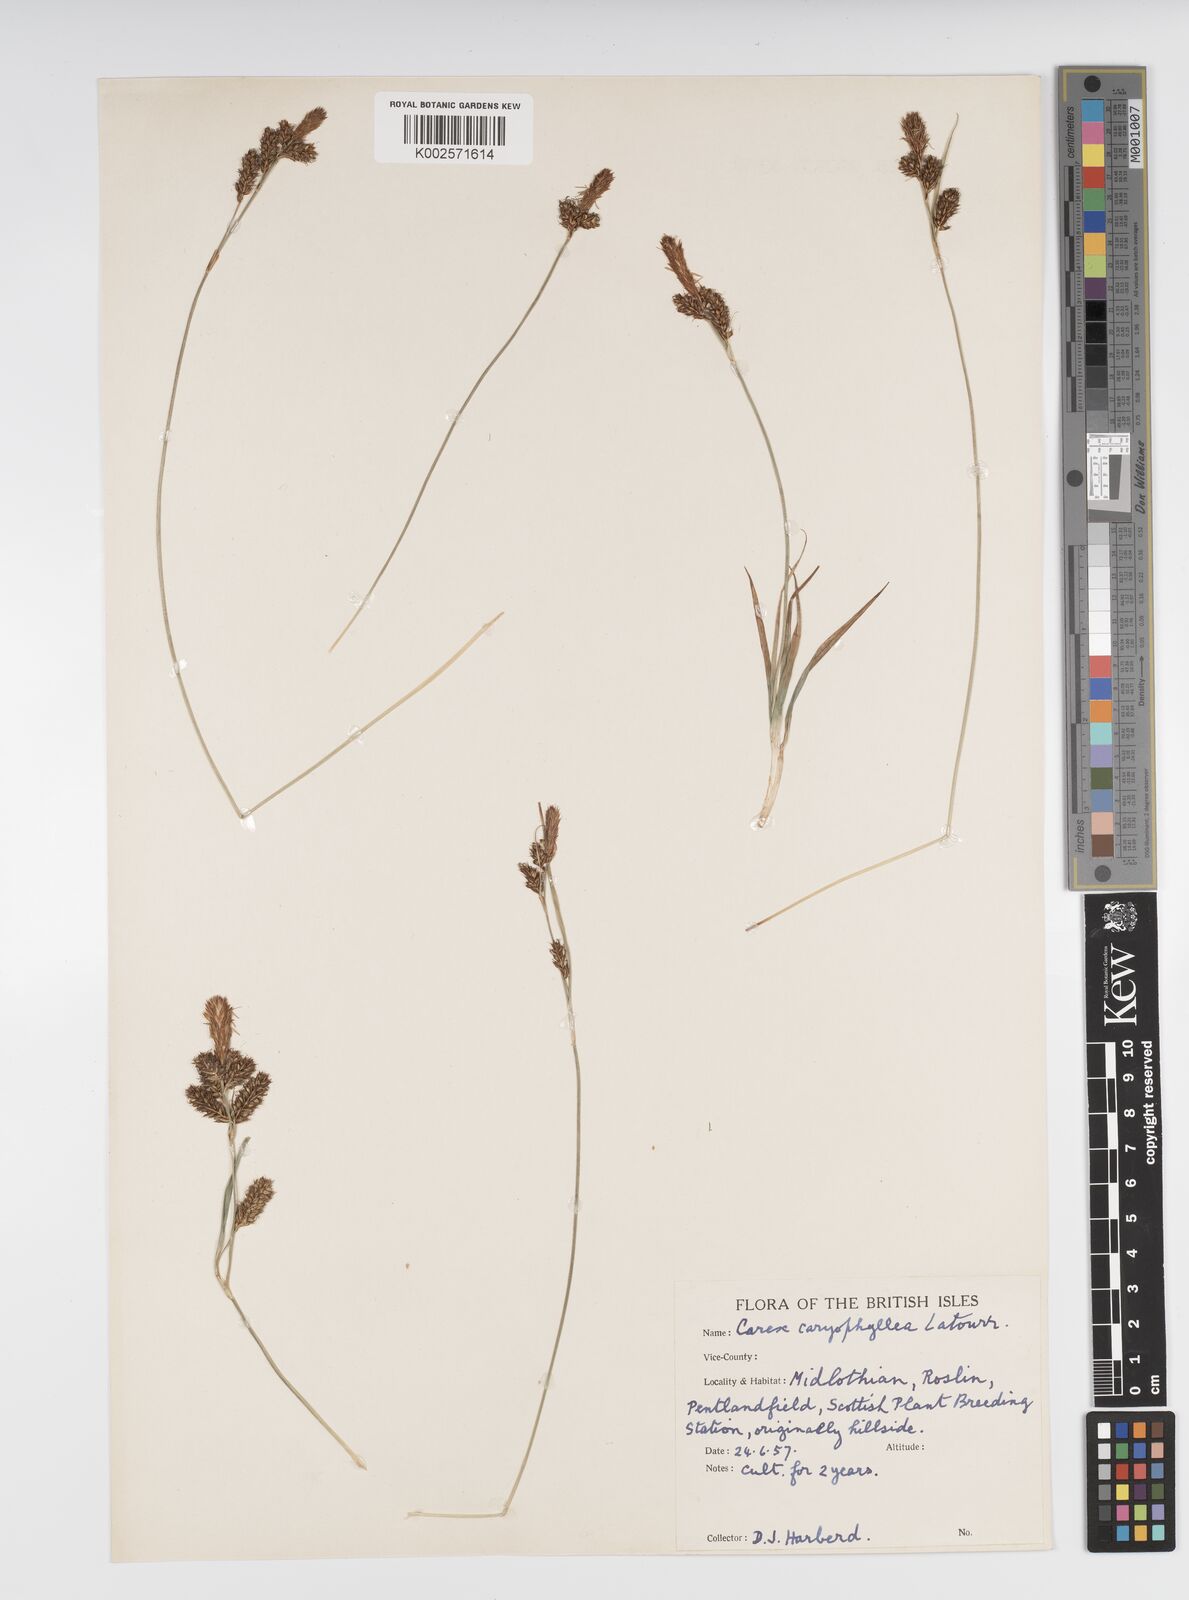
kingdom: Plantae
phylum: Tracheophyta
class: Liliopsida
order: Poales
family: Cyperaceae
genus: Carex
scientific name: Carex caryophyllea
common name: Spring sedge
